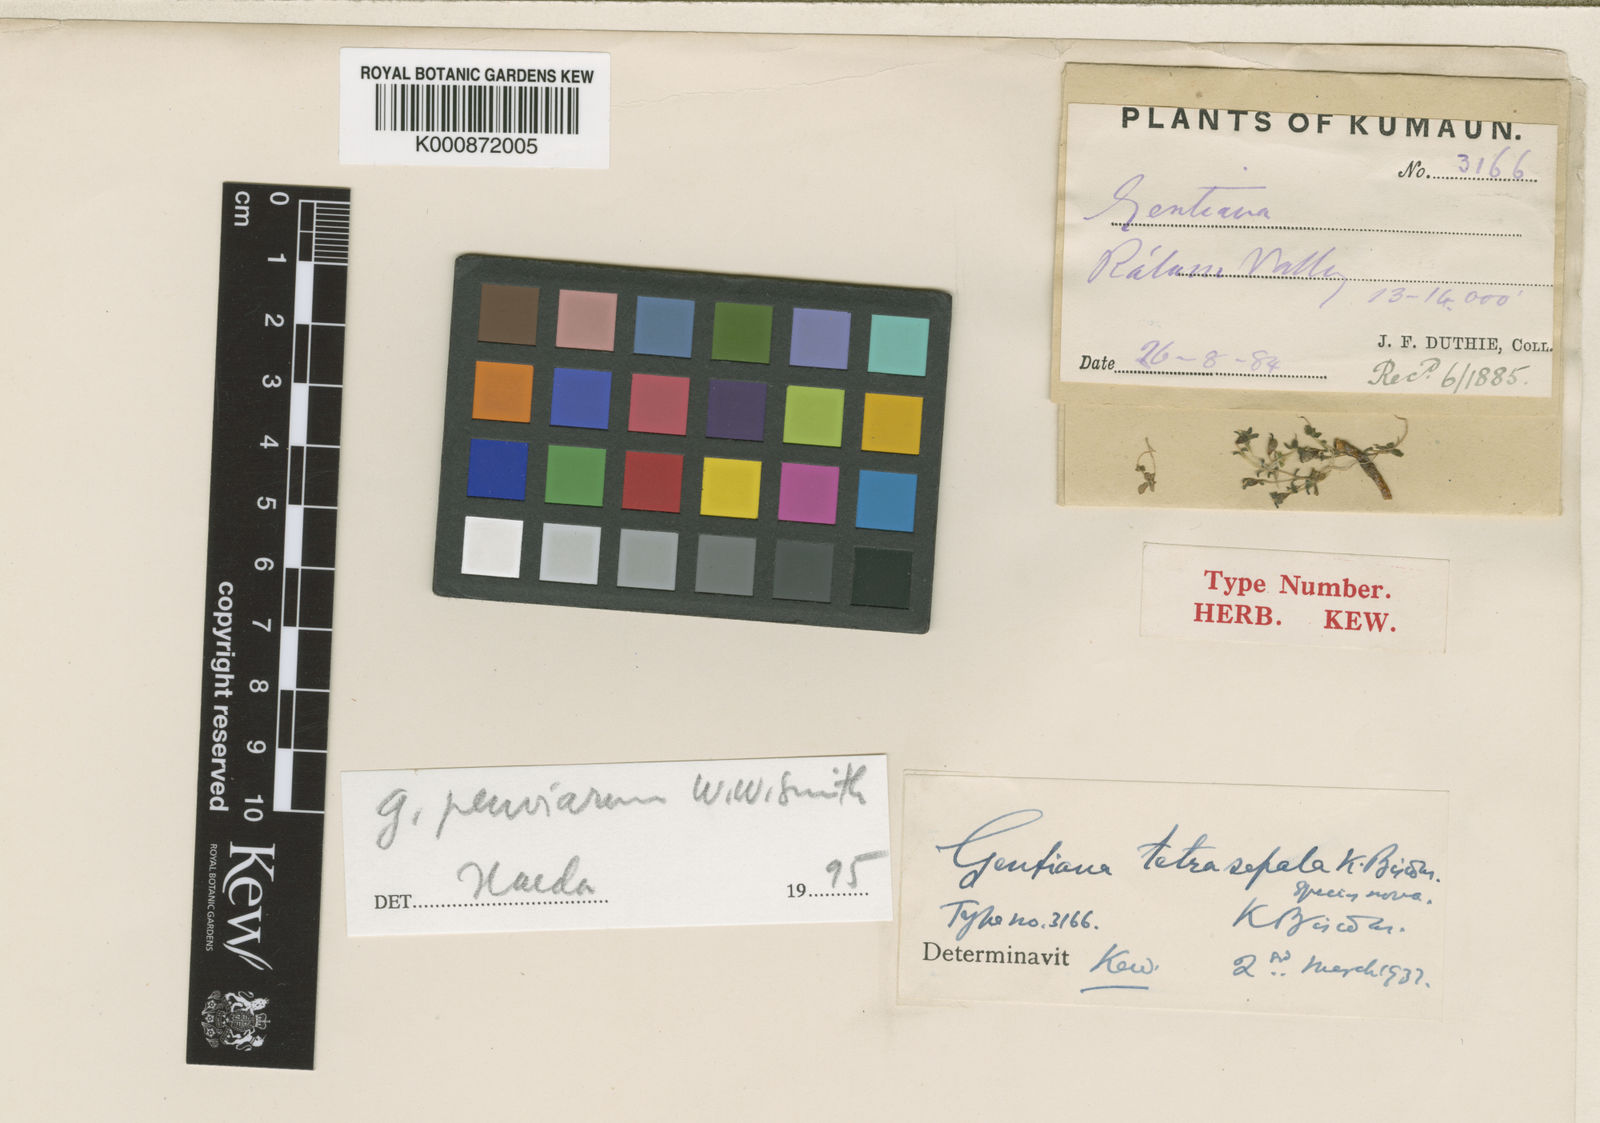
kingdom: Plantae
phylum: Tracheophyta
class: Magnoliopsida
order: Gentianales
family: Gentianaceae
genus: Gentiana
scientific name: Gentiana tetrasepala
